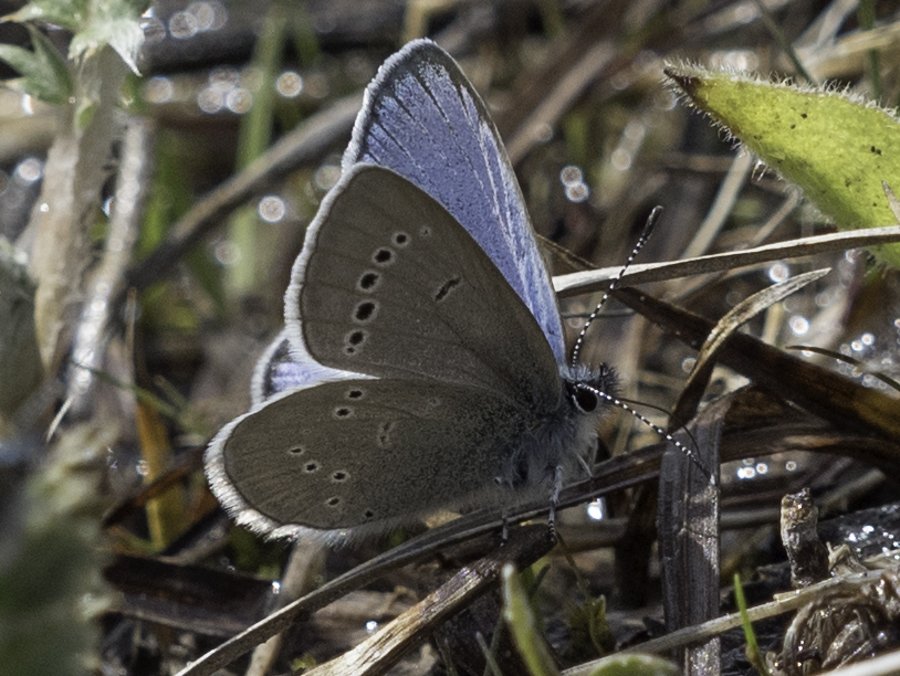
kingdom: Animalia
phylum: Arthropoda
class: Insecta
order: Lepidoptera
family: Lycaenidae
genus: Glaucopsyche
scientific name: Glaucopsyche lygdamus
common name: Silvery Blue
